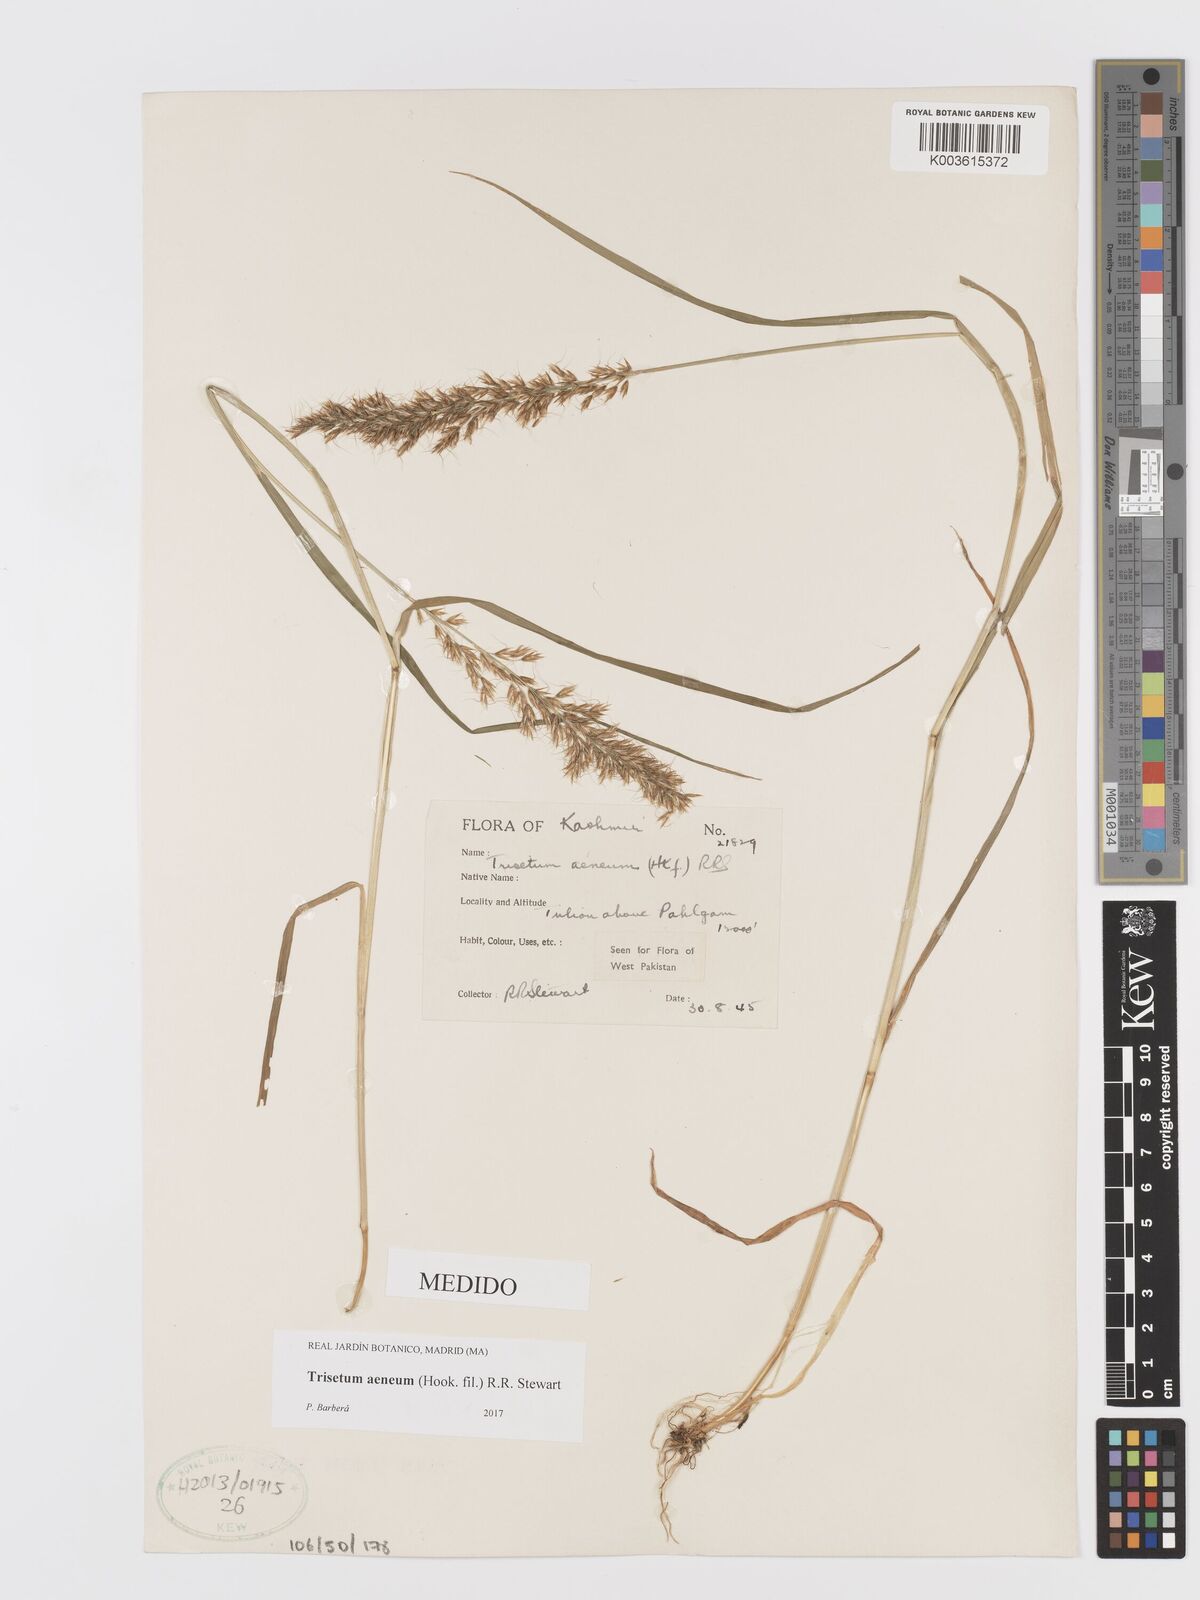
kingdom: Plantae
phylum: Tracheophyta
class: Liliopsida
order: Poales
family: Poaceae
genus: Sibirotrisetum
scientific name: Sibirotrisetum aeneum
